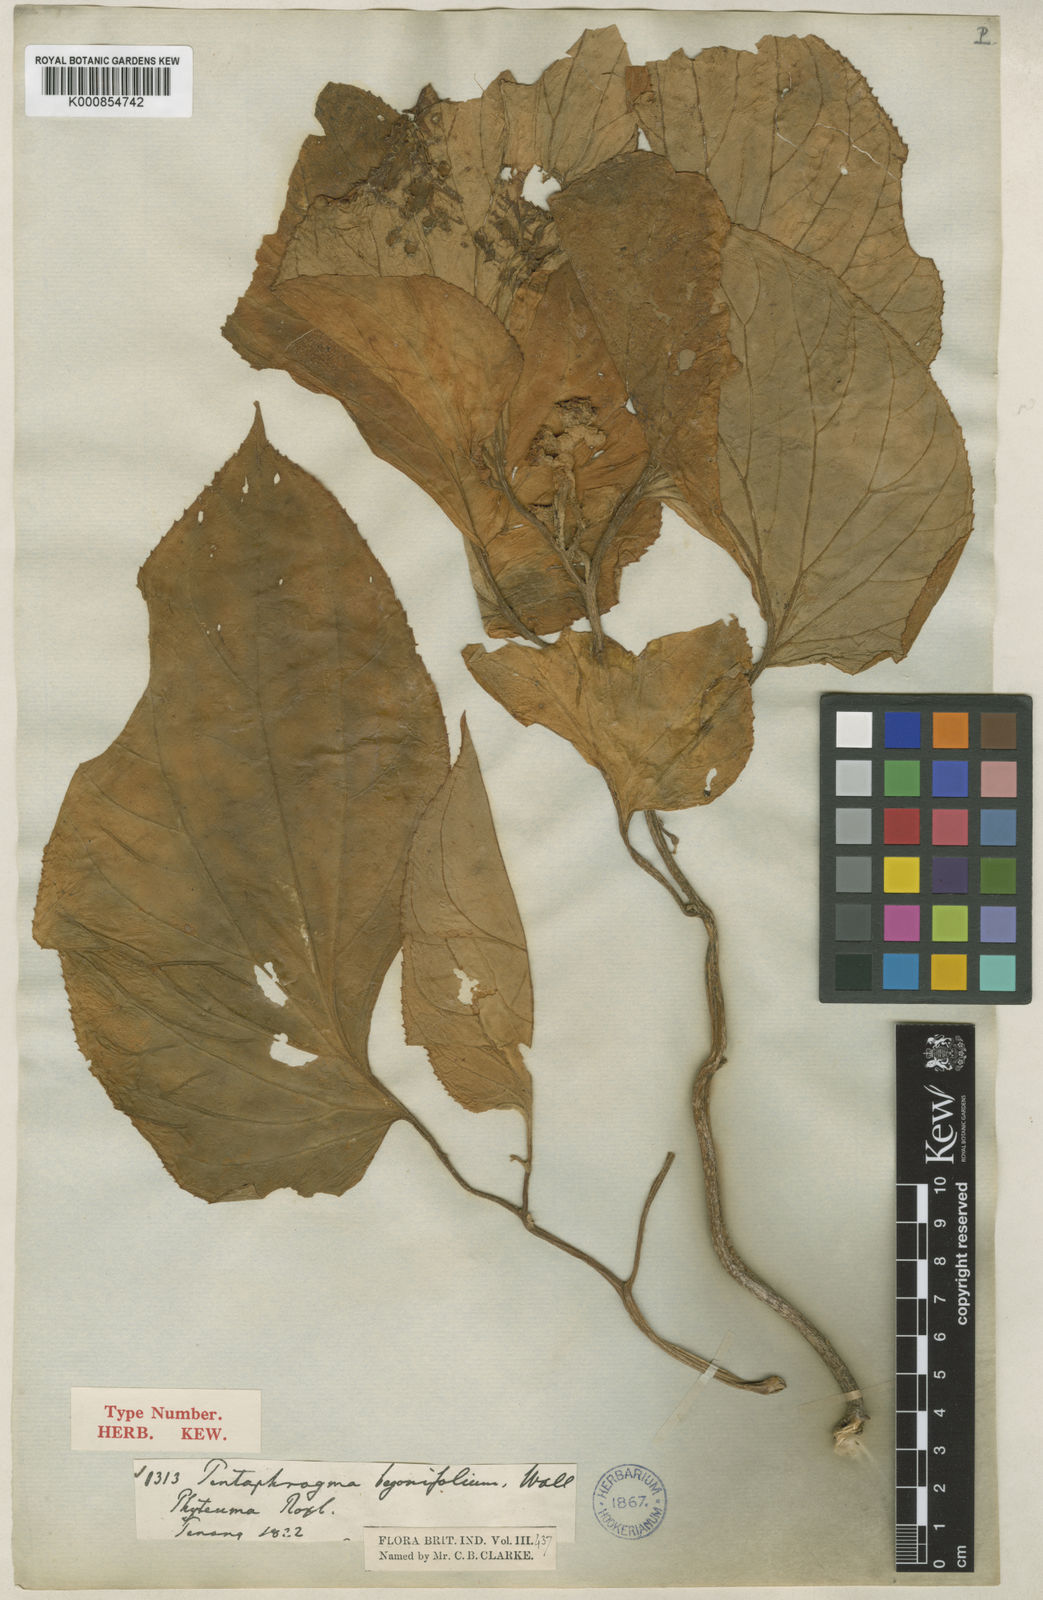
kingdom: Plantae
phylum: Tracheophyta
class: Magnoliopsida
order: Asterales
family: Pentaphragmataceae
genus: Pentaphragma
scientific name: Pentaphragma
